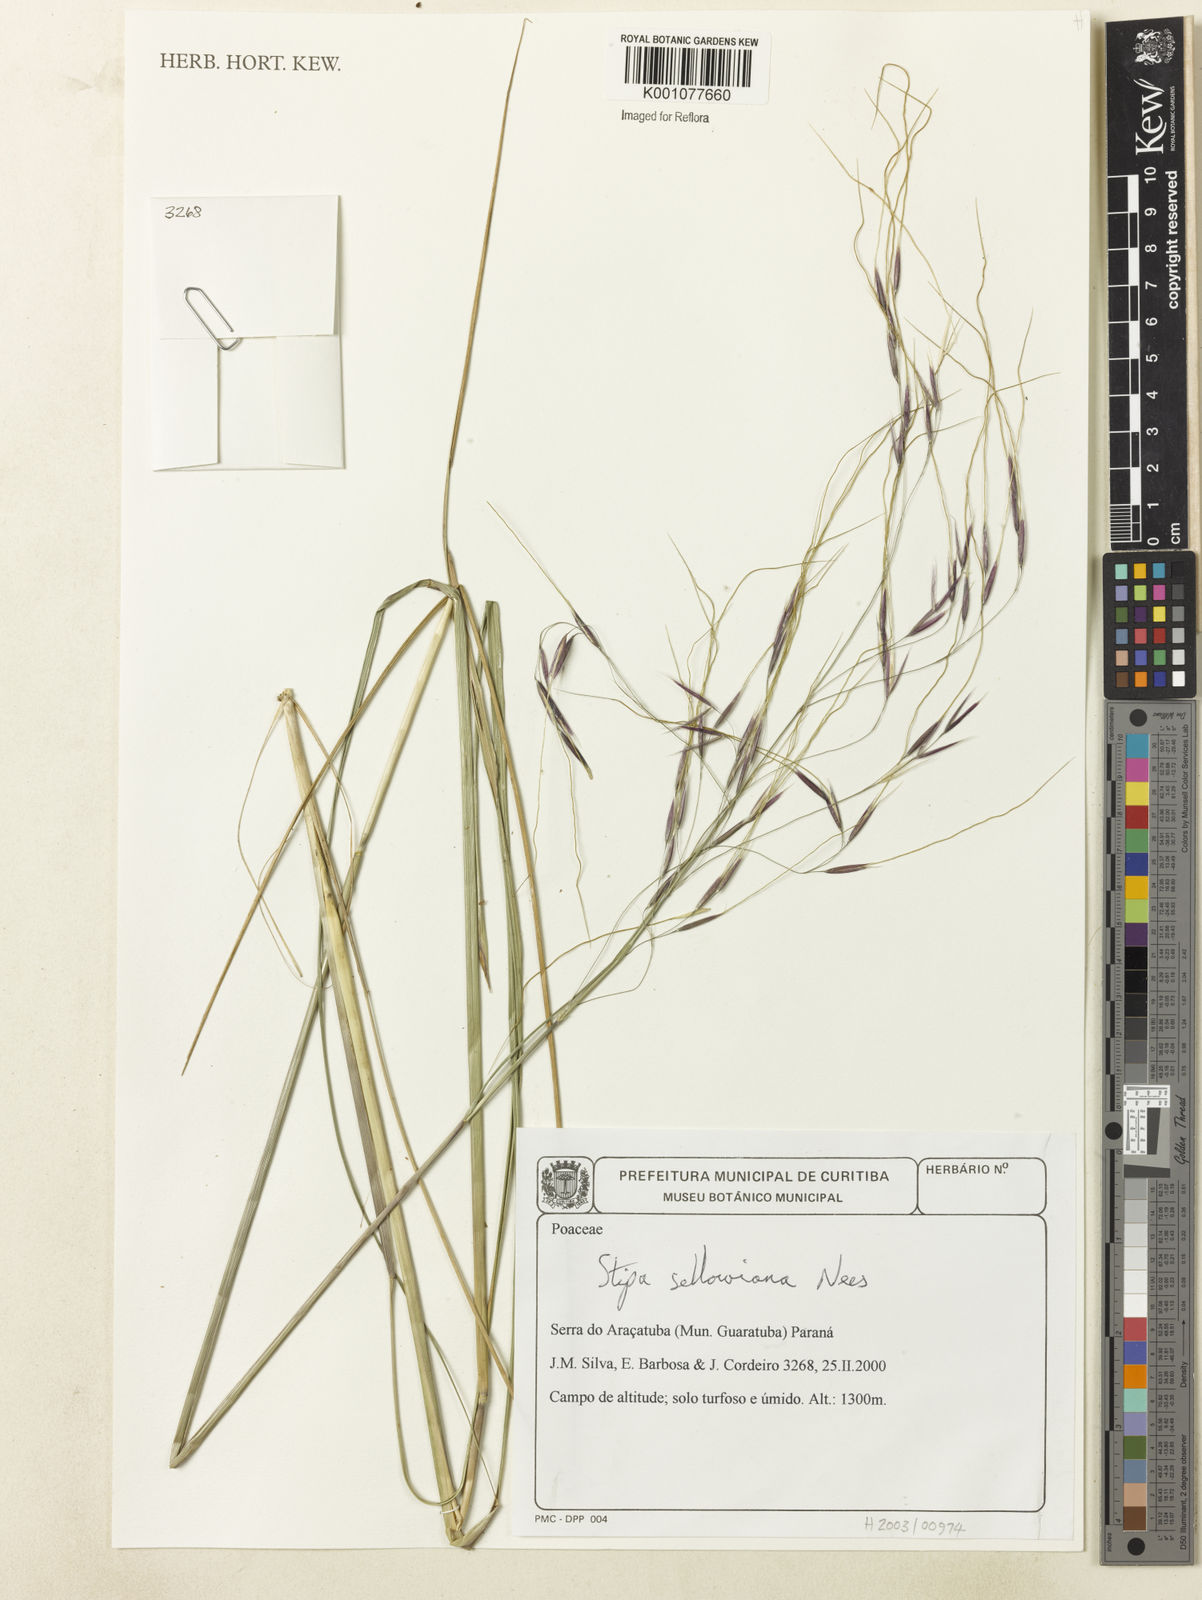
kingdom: Plantae
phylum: Tracheophyta
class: Liliopsida
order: Poales
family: Poaceae
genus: Nassella
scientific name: Nassella
